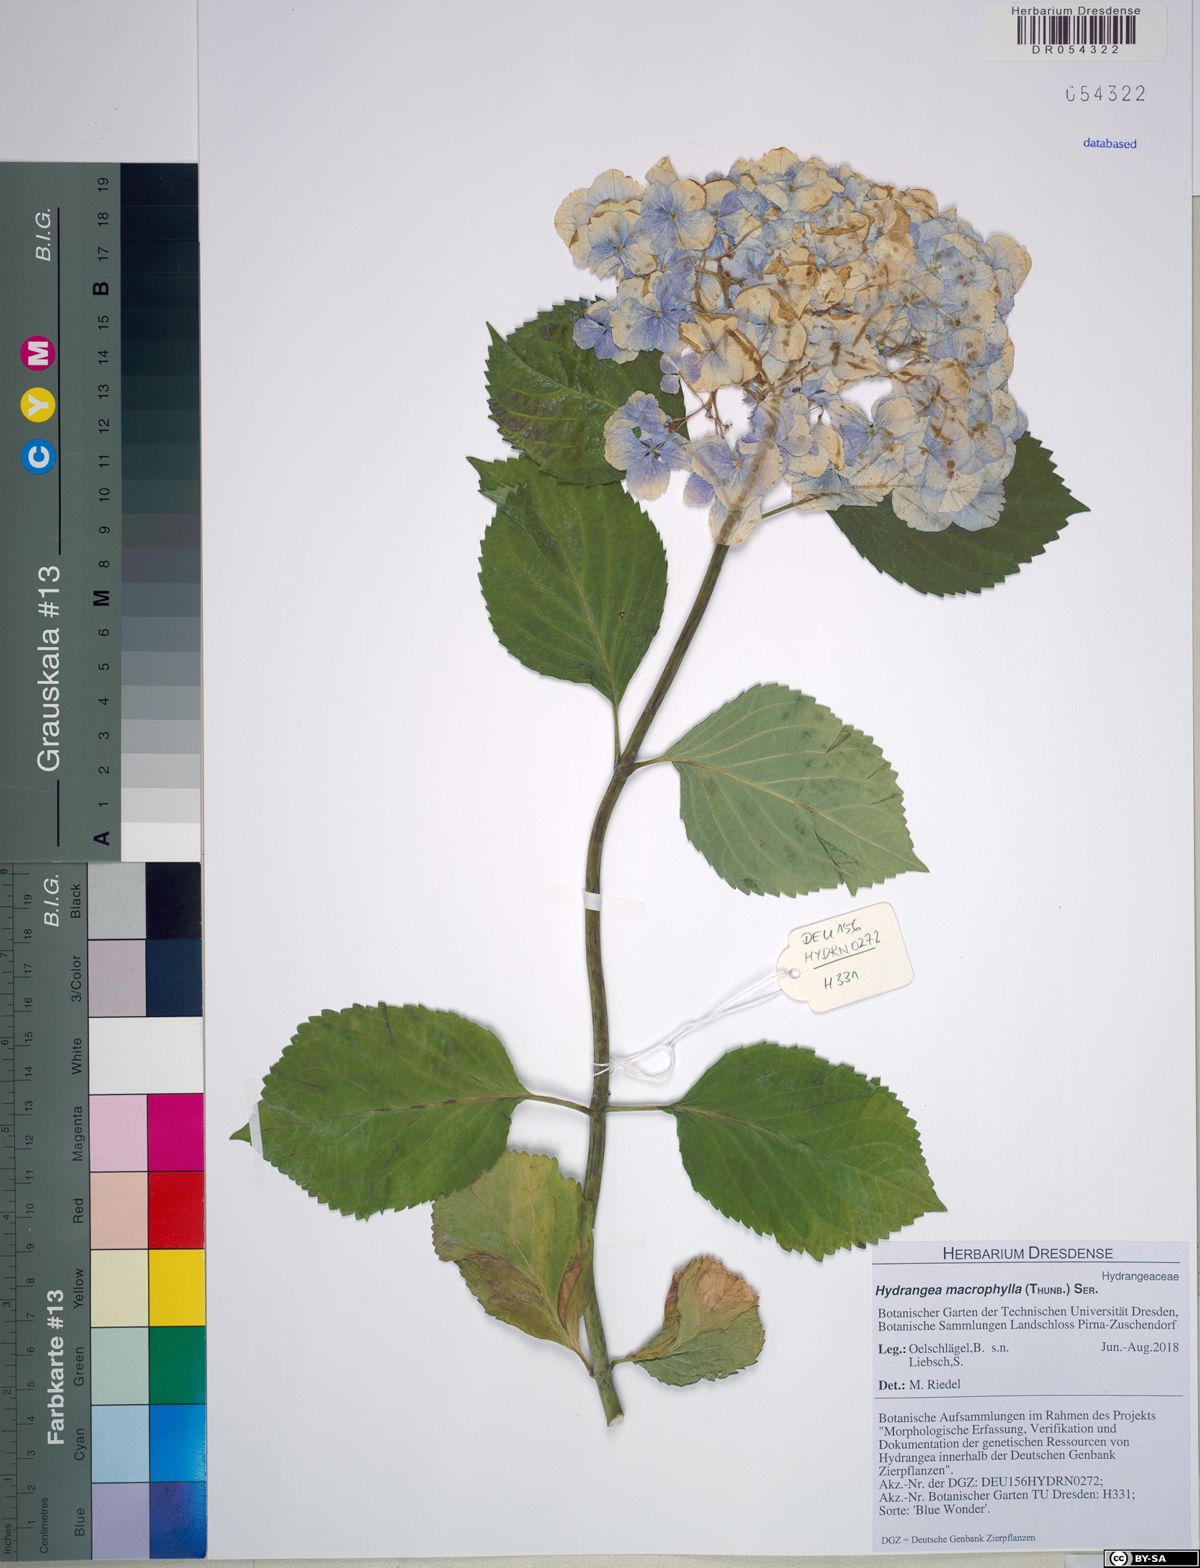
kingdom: Plantae
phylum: Tracheophyta
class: Magnoliopsida
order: Cornales
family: Hydrangeaceae
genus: Hydrangea
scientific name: Hydrangea macrophylla
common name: Hydrangea
